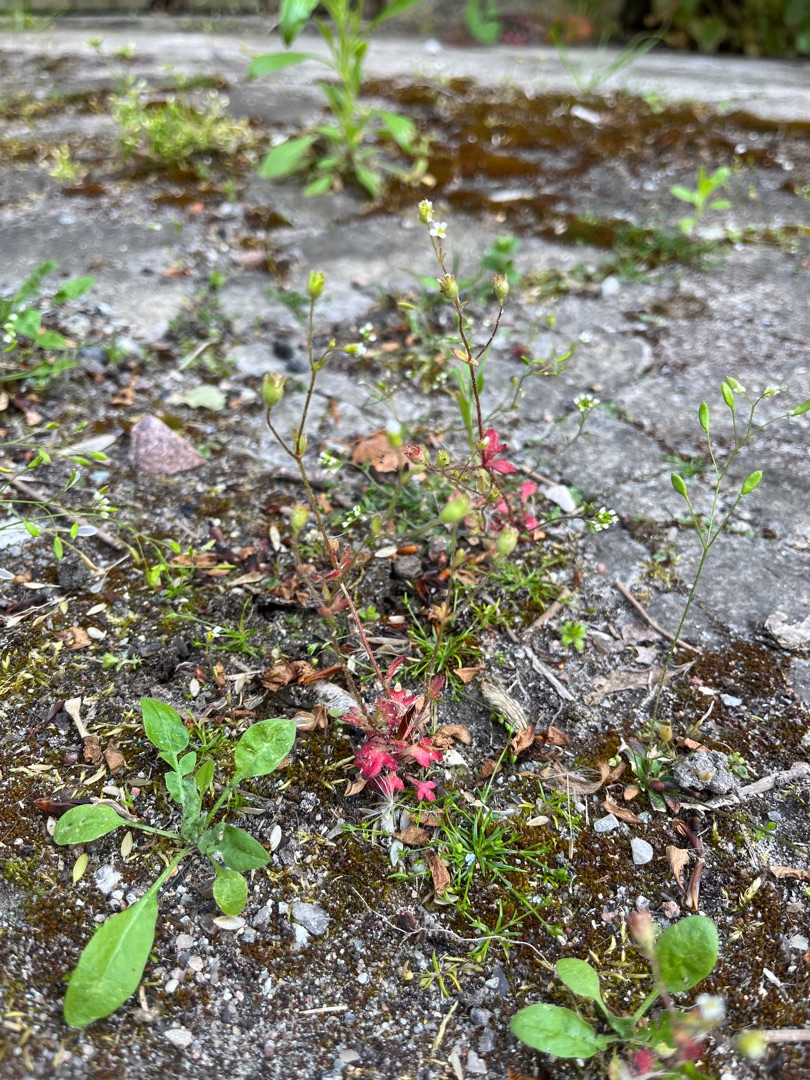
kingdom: Plantae
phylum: Tracheophyta
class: Magnoliopsida
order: Saxifragales
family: Saxifragaceae
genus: Saxifraga
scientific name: Saxifraga tridactylites
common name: Trekløft-stenbræk
